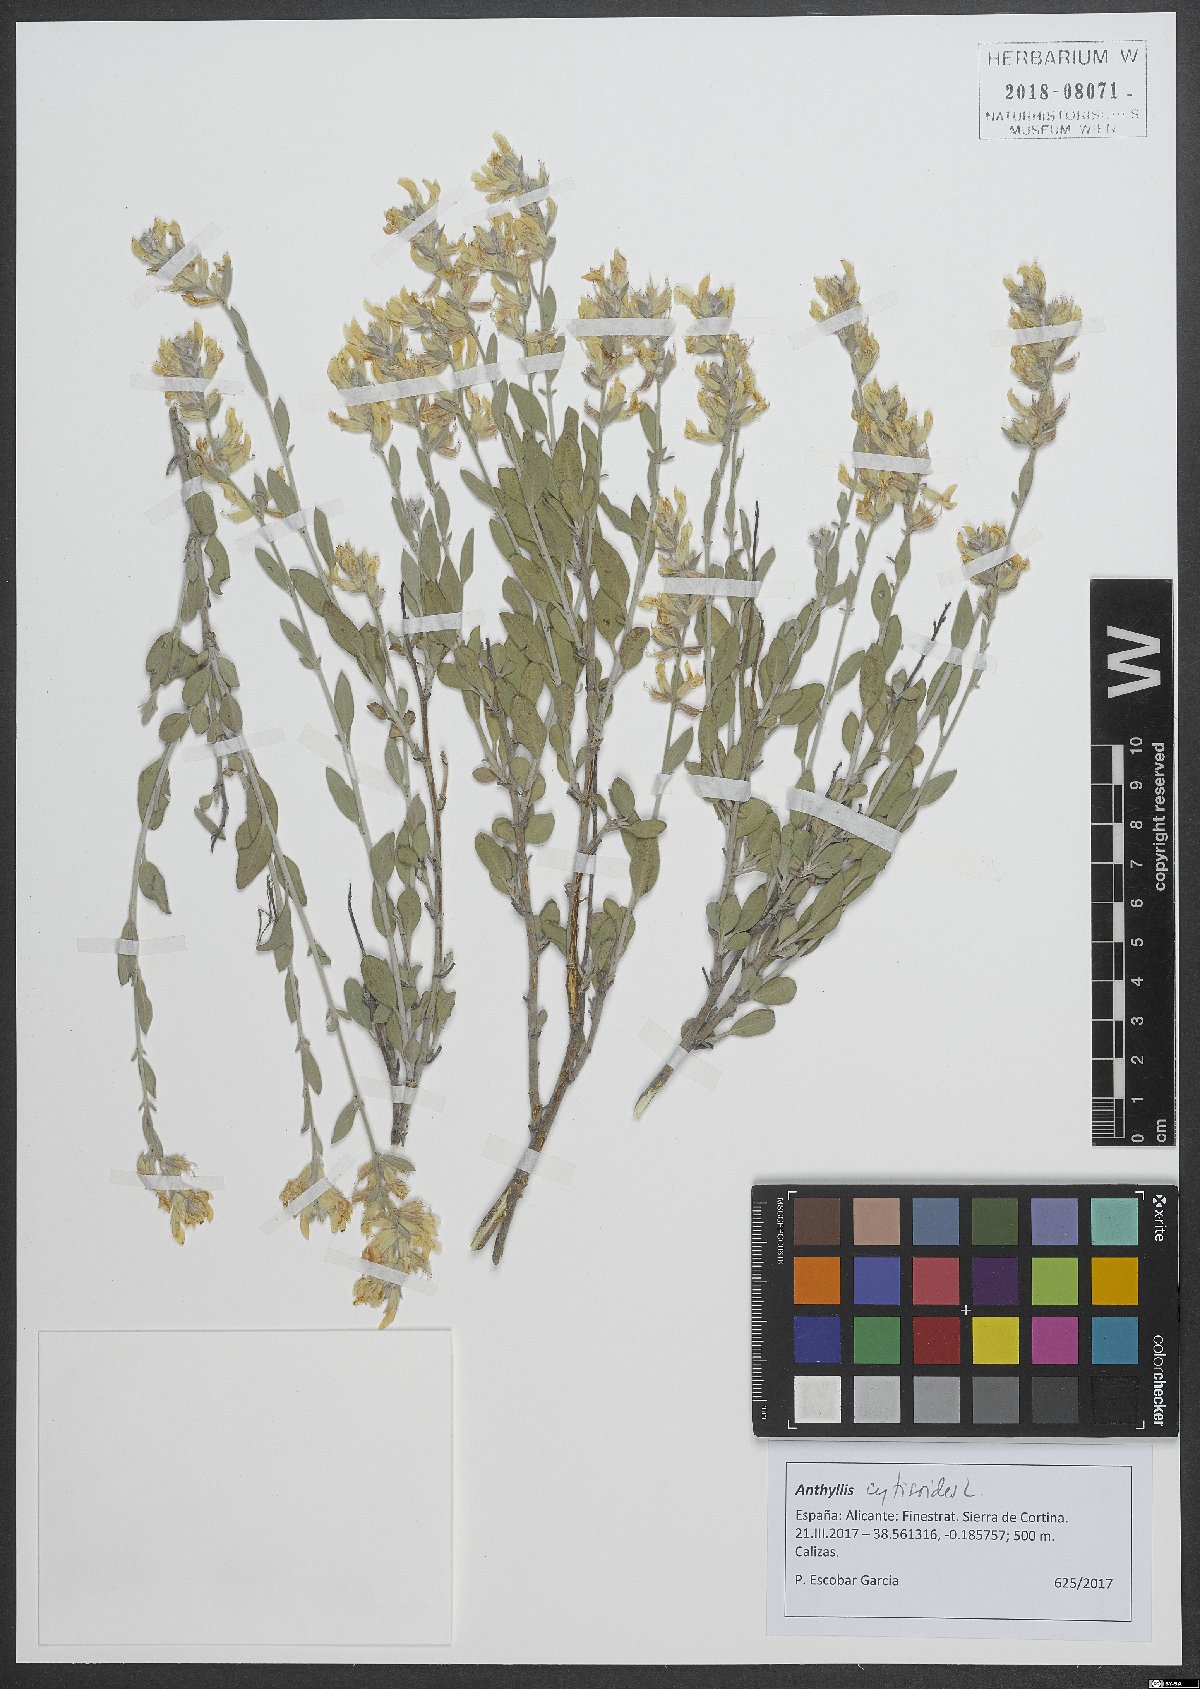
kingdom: Plantae
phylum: Tracheophyta
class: Magnoliopsida
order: Fabales
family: Fabaceae
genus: Anthyllis
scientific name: Anthyllis cytisoides
